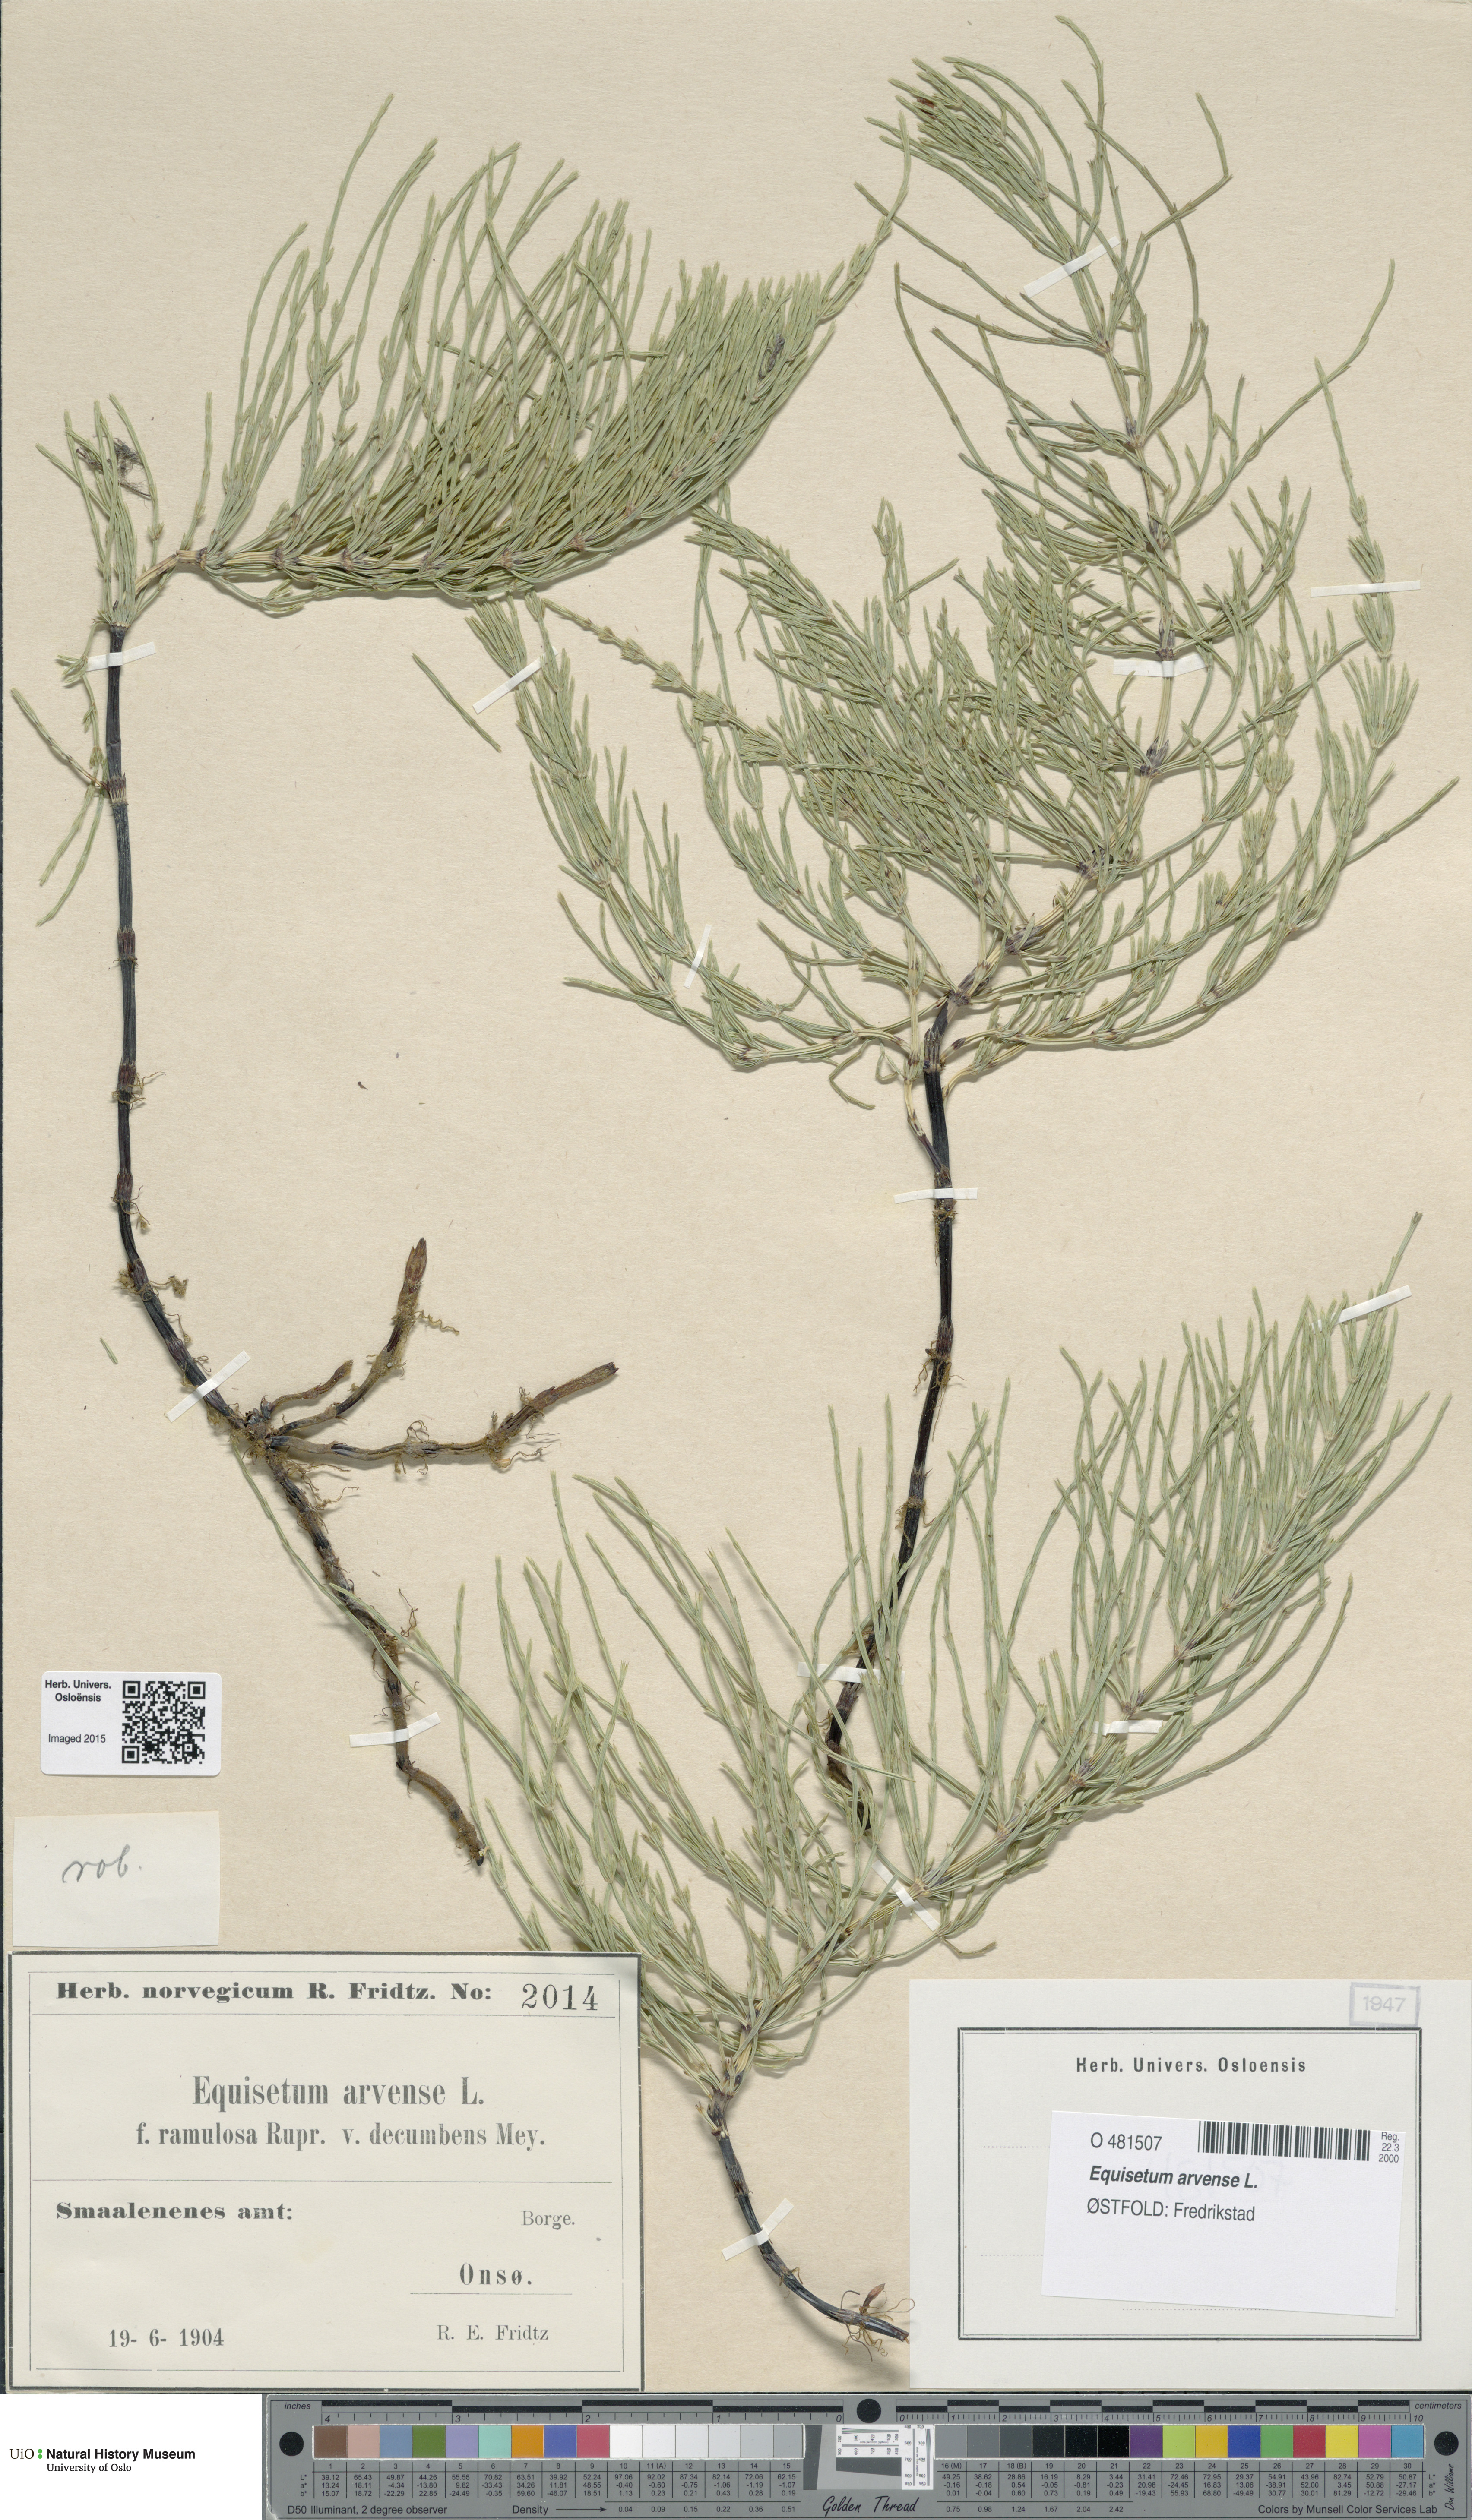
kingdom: Plantae
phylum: Tracheophyta
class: Polypodiopsida
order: Equisetales
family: Equisetaceae
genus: Equisetum
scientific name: Equisetum arvense
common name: Field horsetail
